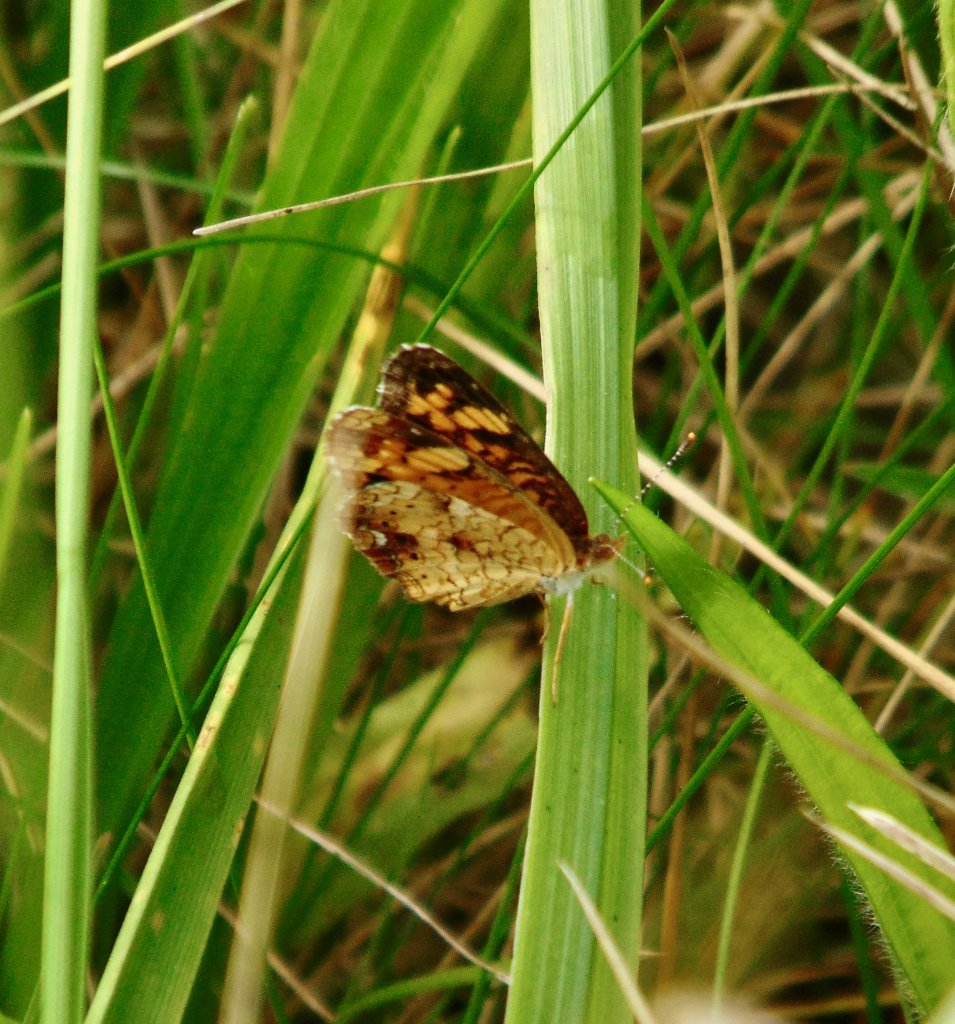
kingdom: Animalia
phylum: Arthropoda
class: Insecta
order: Lepidoptera
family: Nymphalidae
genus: Phyciodes
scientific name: Phyciodes tharos
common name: Pearl Crescent
